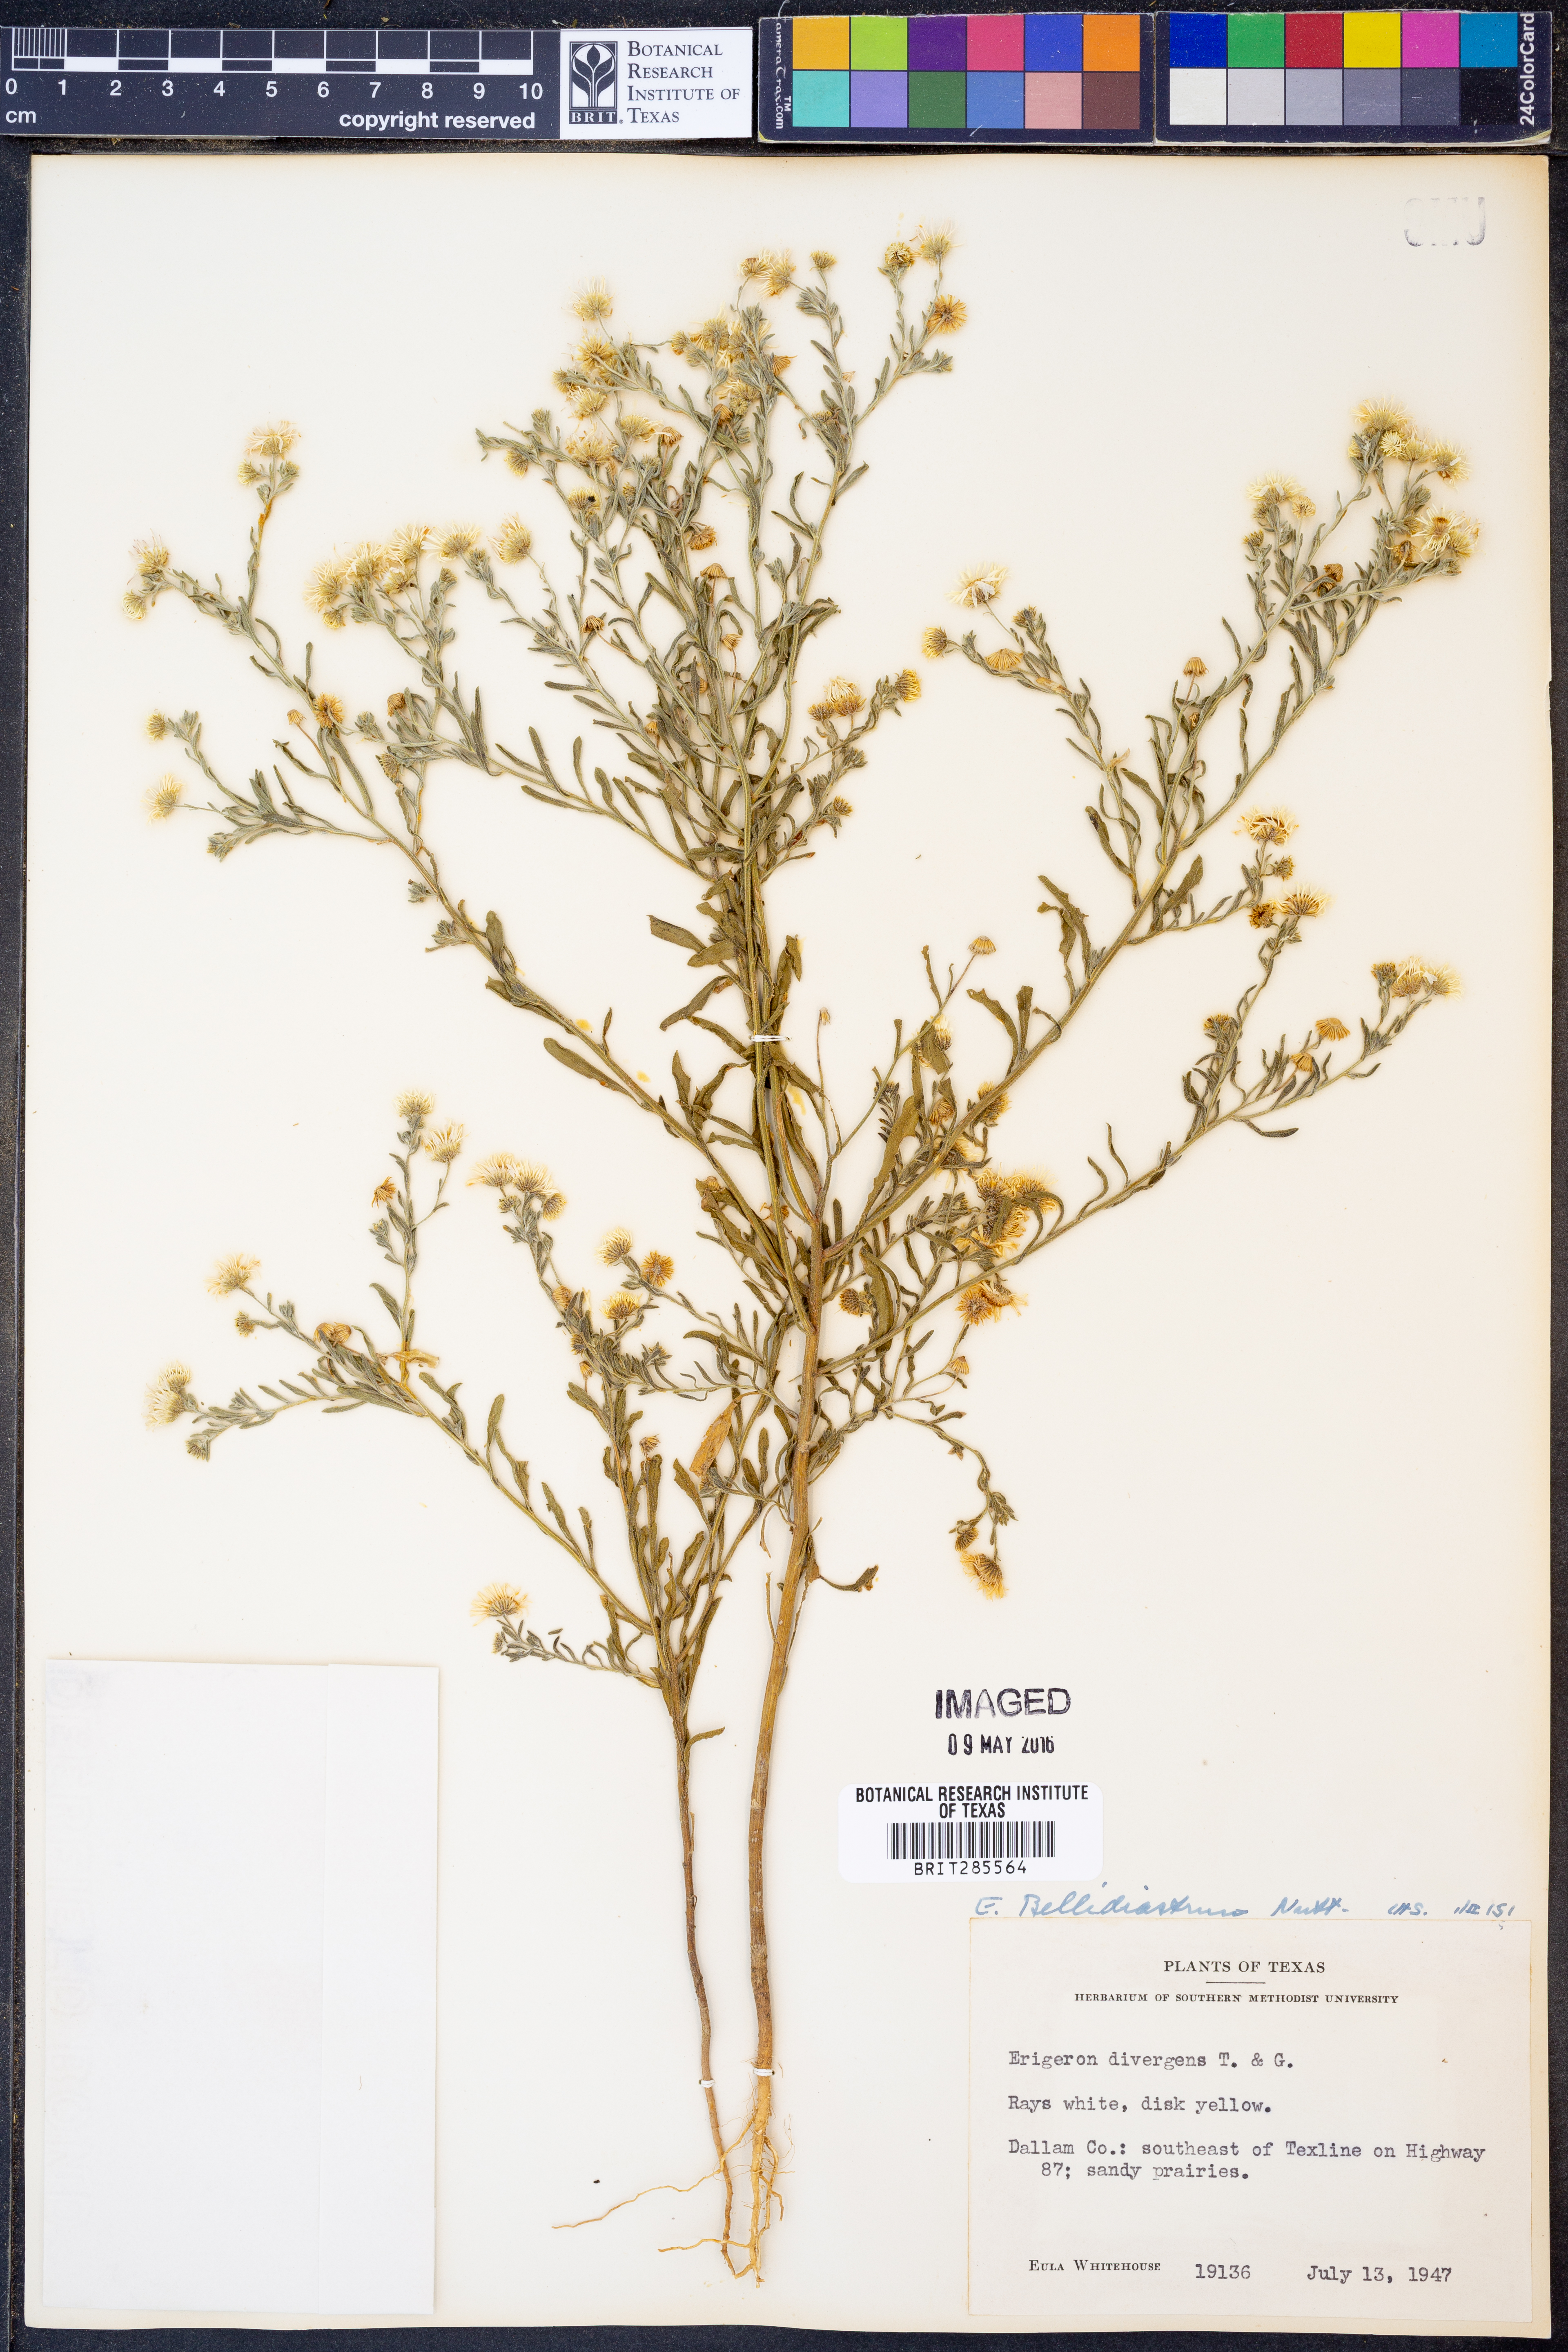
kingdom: Plantae
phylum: Tracheophyta
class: Magnoliopsida
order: Asterales
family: Asteraceae
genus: Erigeron
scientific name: Erigeron bellidiastrum
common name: Sand fleabane
